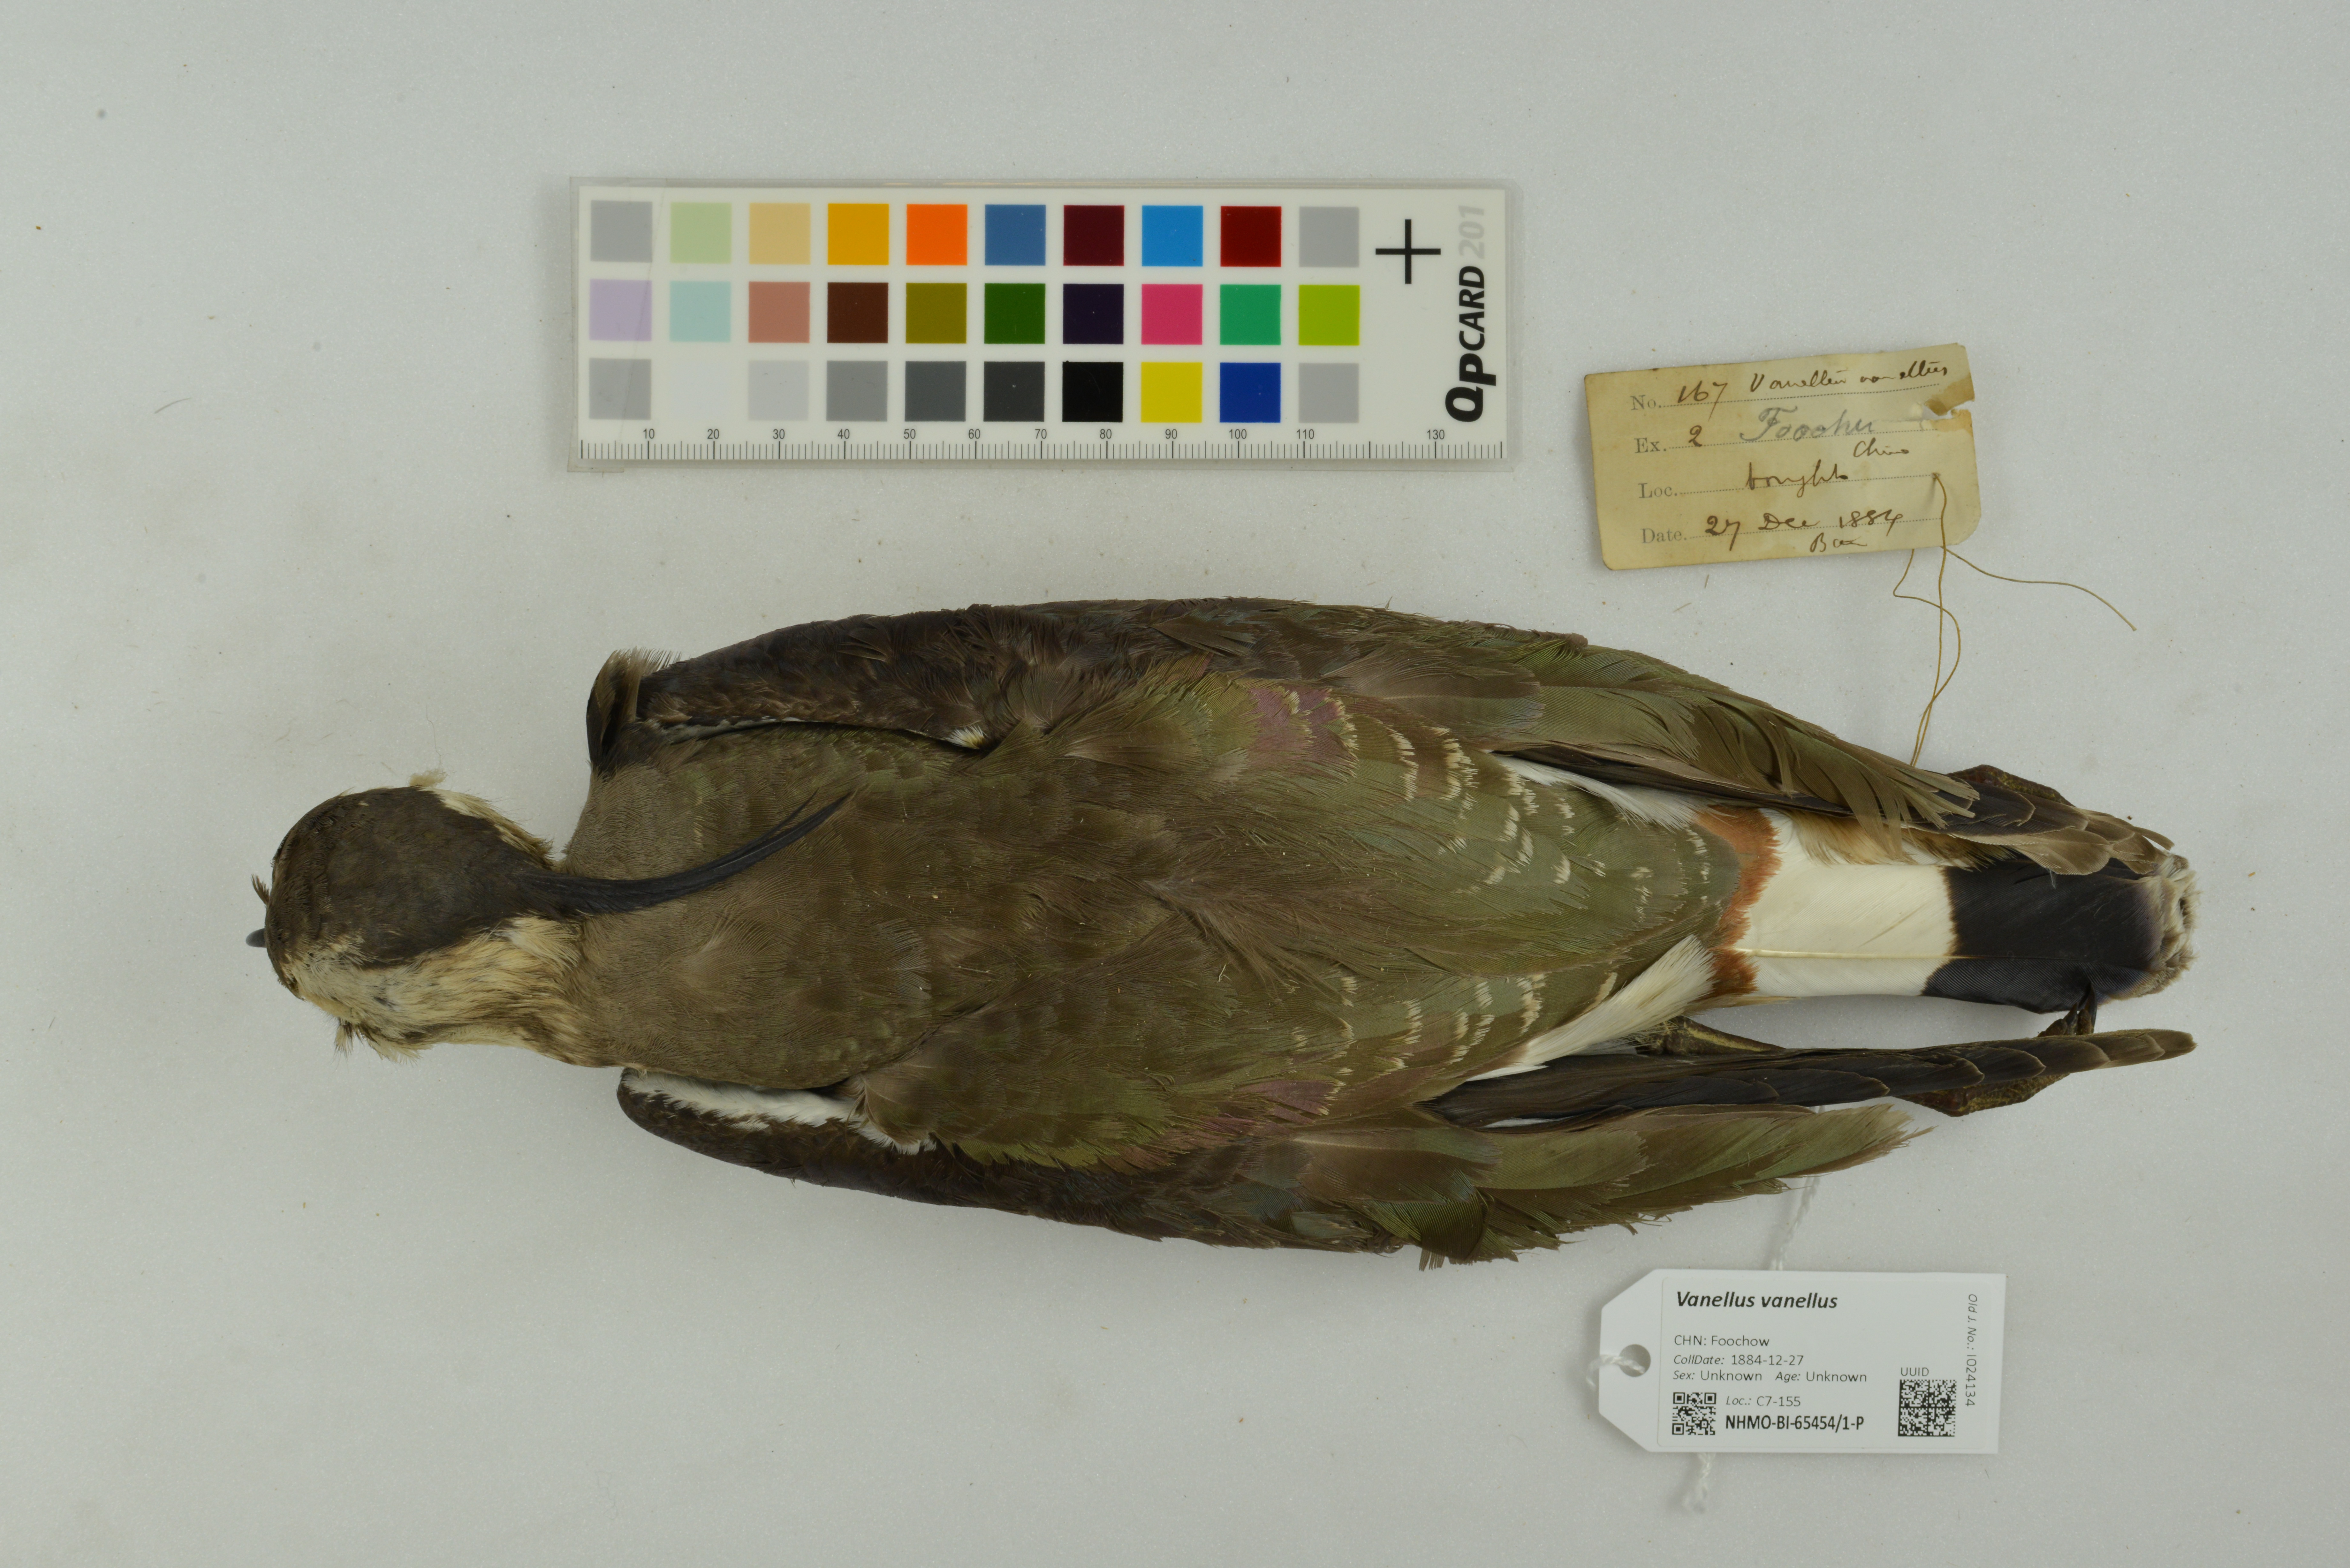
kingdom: Animalia
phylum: Chordata
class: Aves
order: Charadriiformes
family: Charadriidae
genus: Vanellus
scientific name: Vanellus vanellus
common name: Northern lapwing
